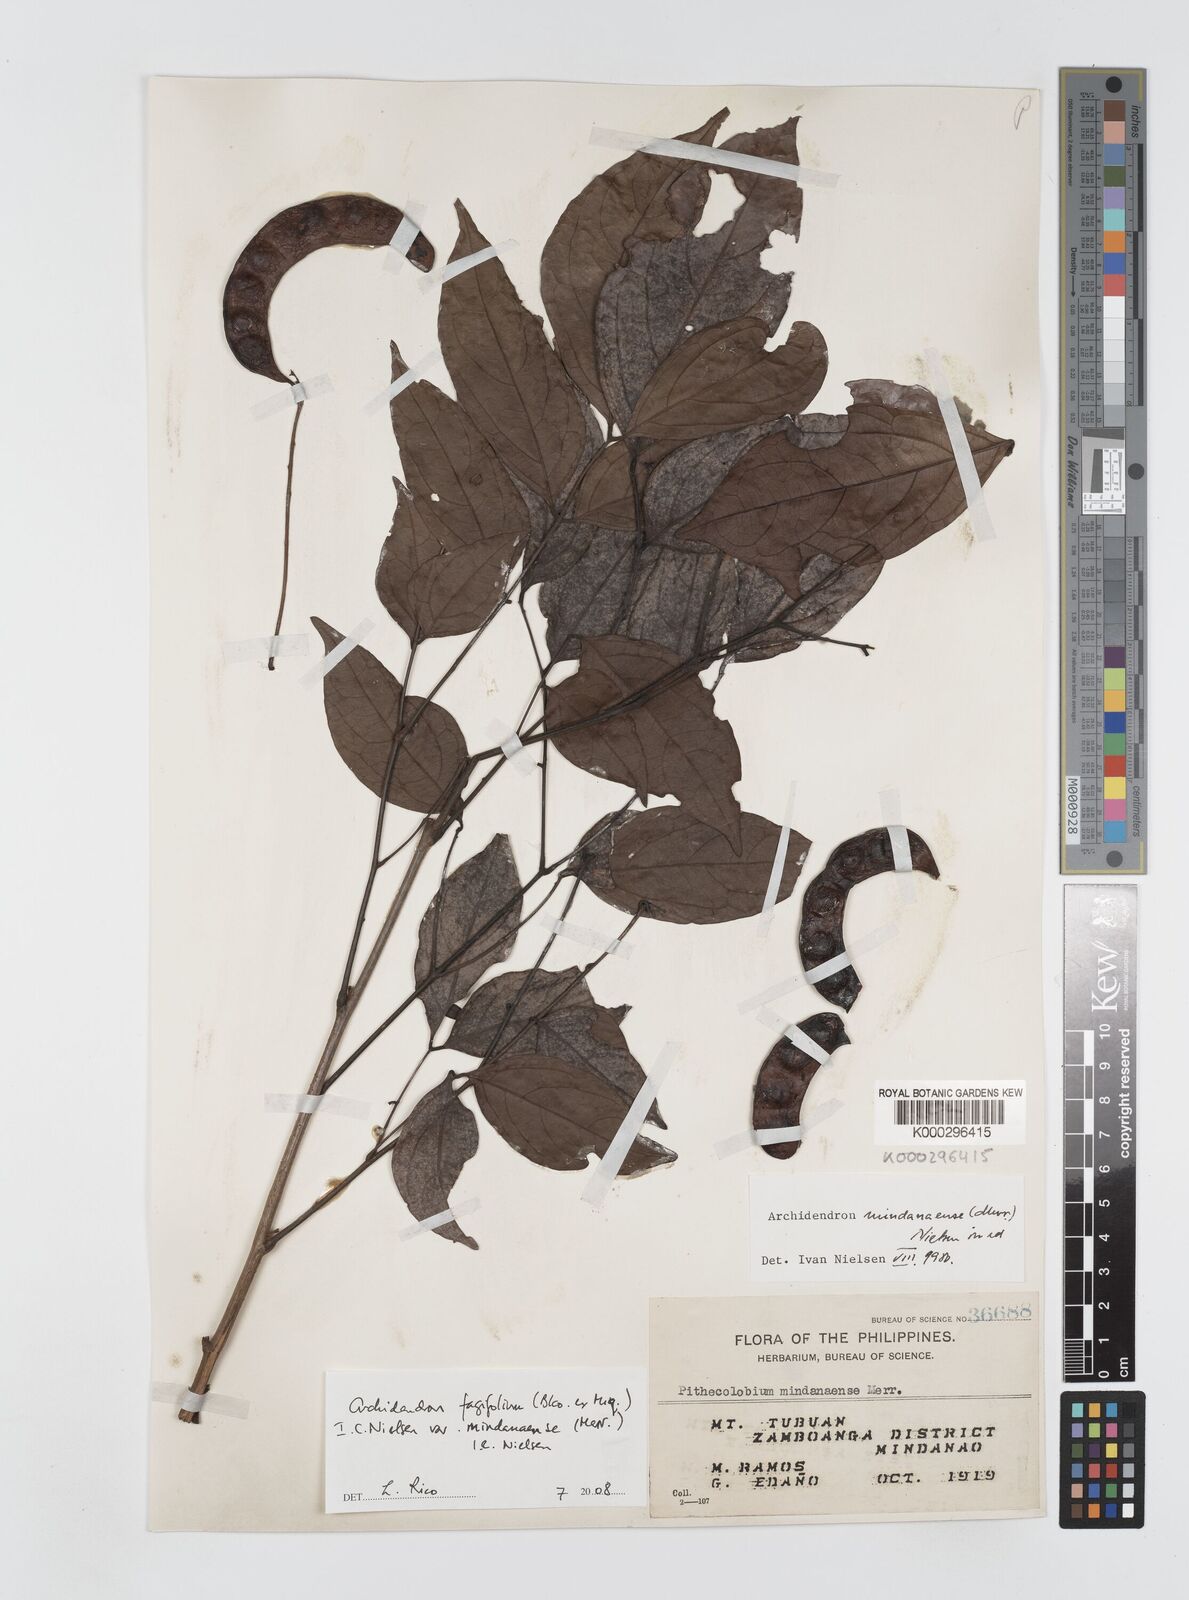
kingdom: Plantae
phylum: Tracheophyta
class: Magnoliopsida
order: Fabales
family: Fabaceae
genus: Archidendron
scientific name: Archidendron fagifolium
